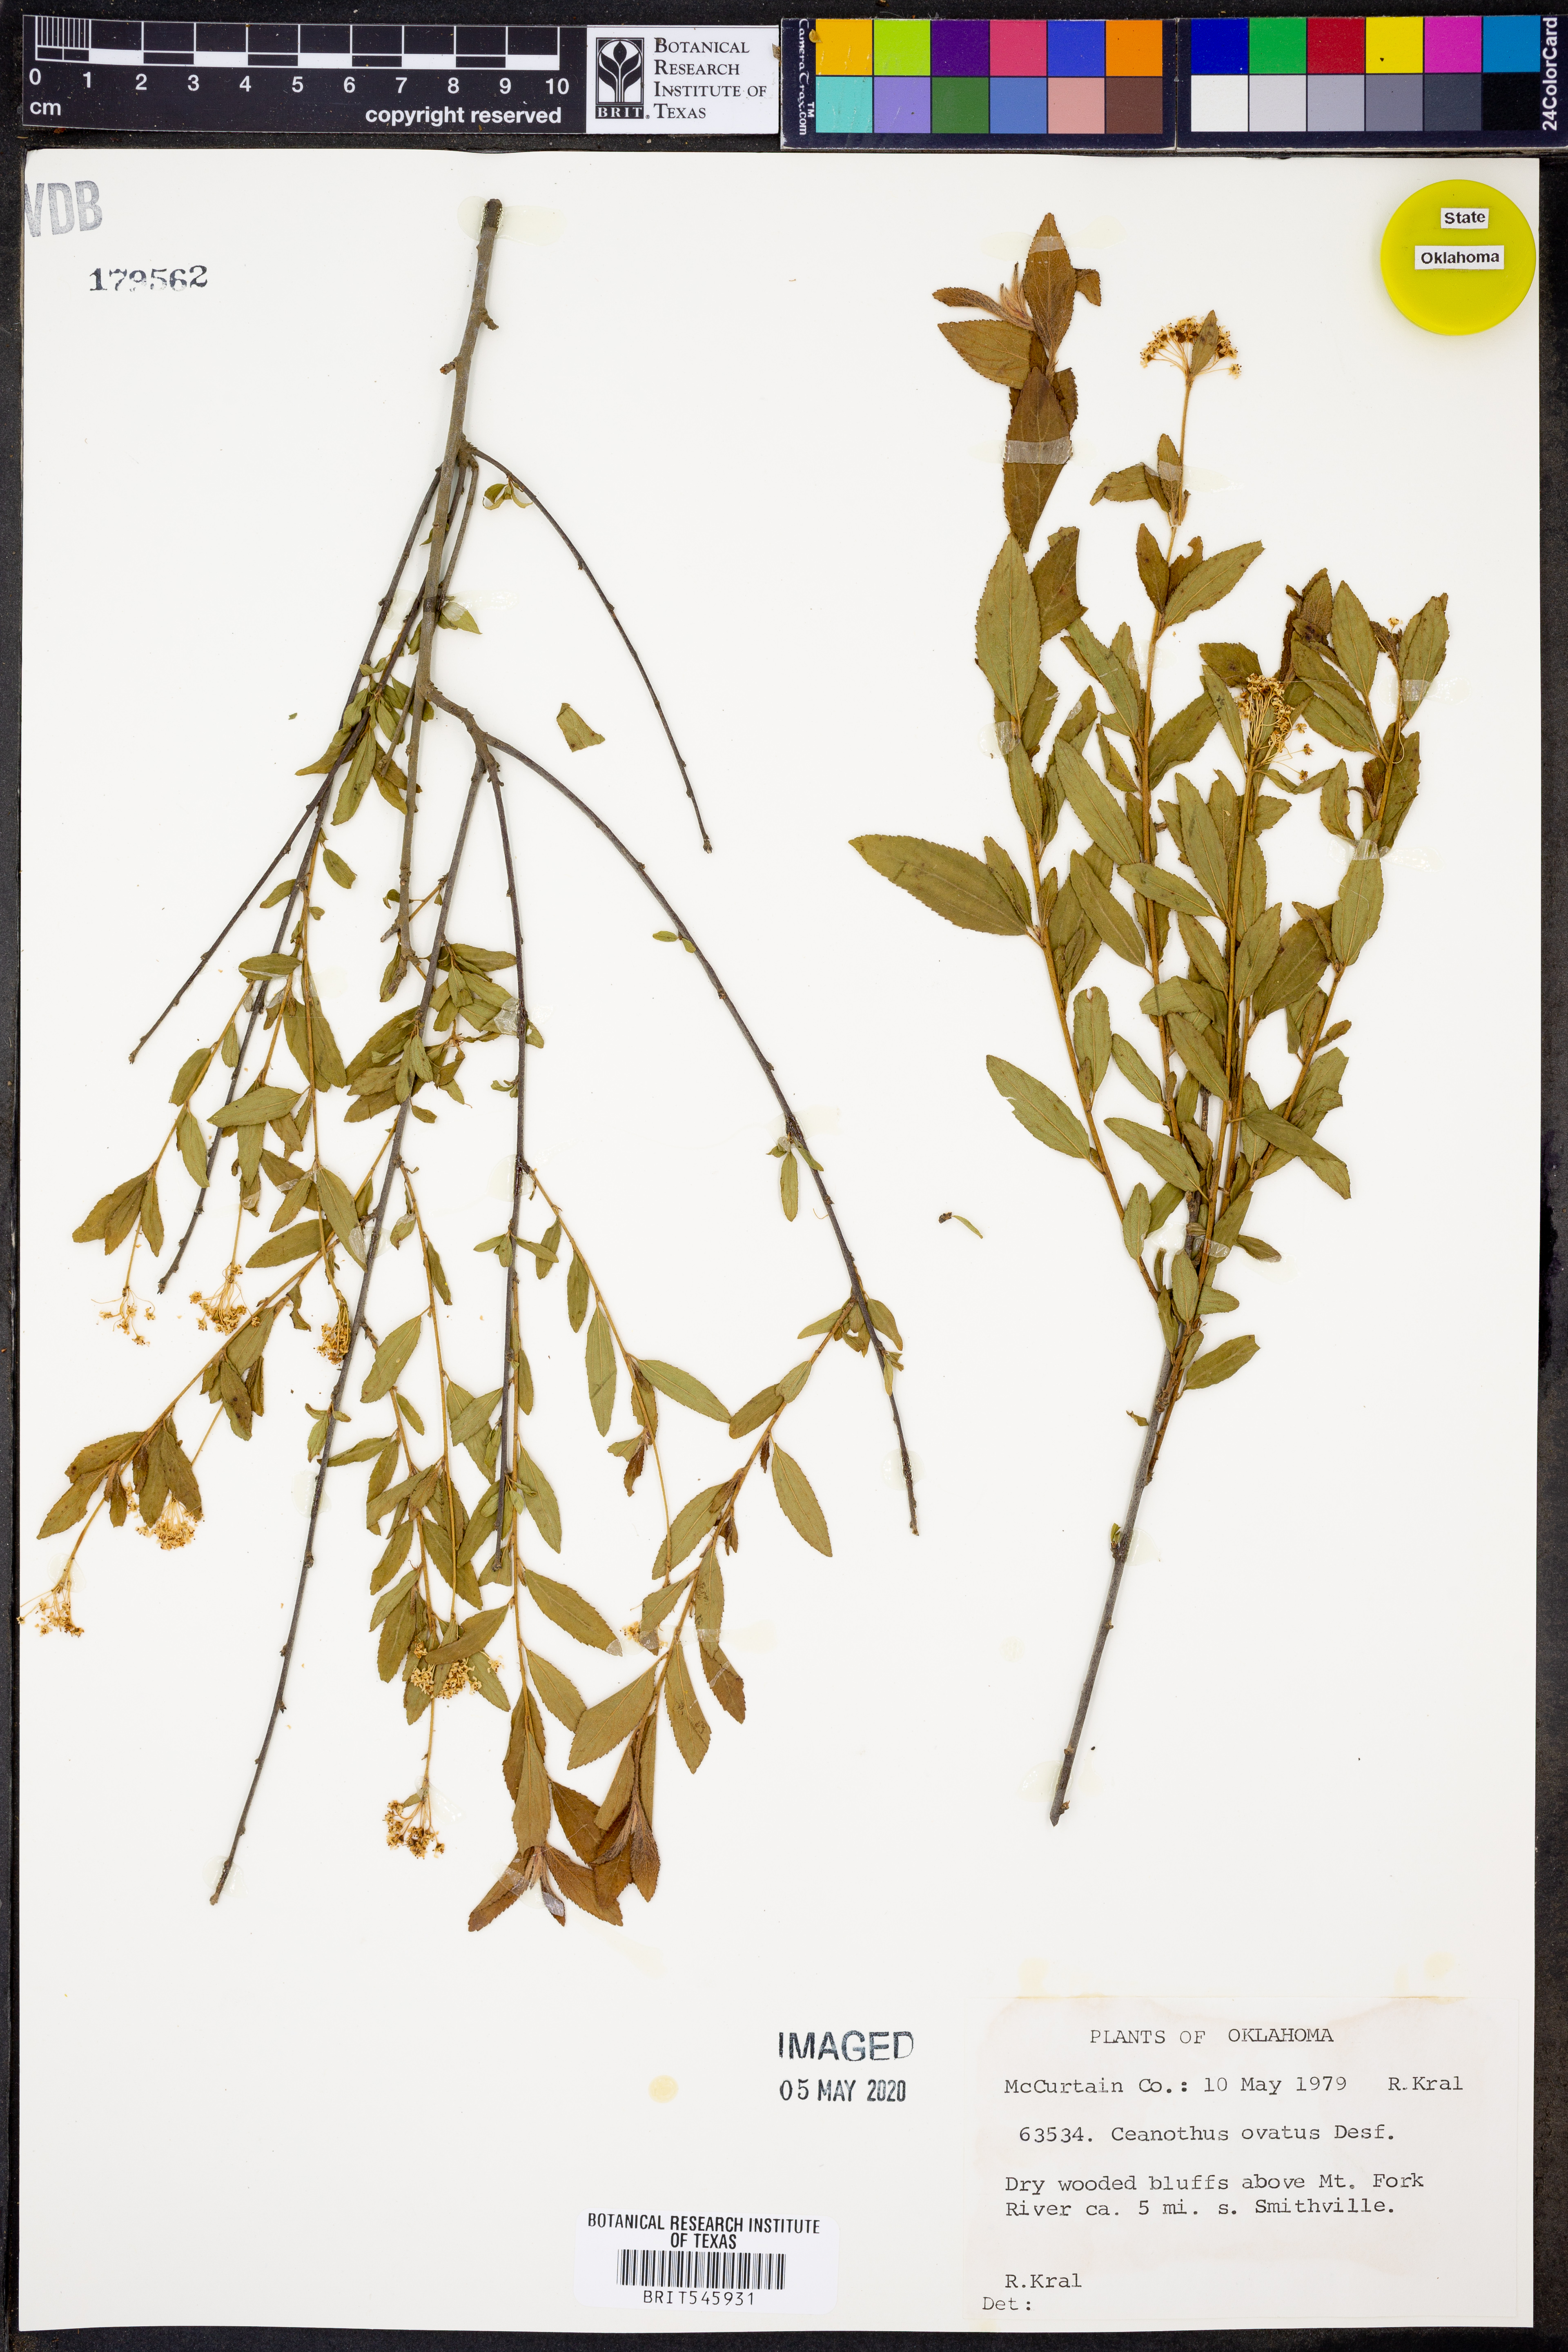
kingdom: Plantae
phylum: Tracheophyta
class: Magnoliopsida
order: Rosales
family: Rhamnaceae
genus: Ceanothus
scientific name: Ceanothus herbaceus
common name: Inland ceanothus
